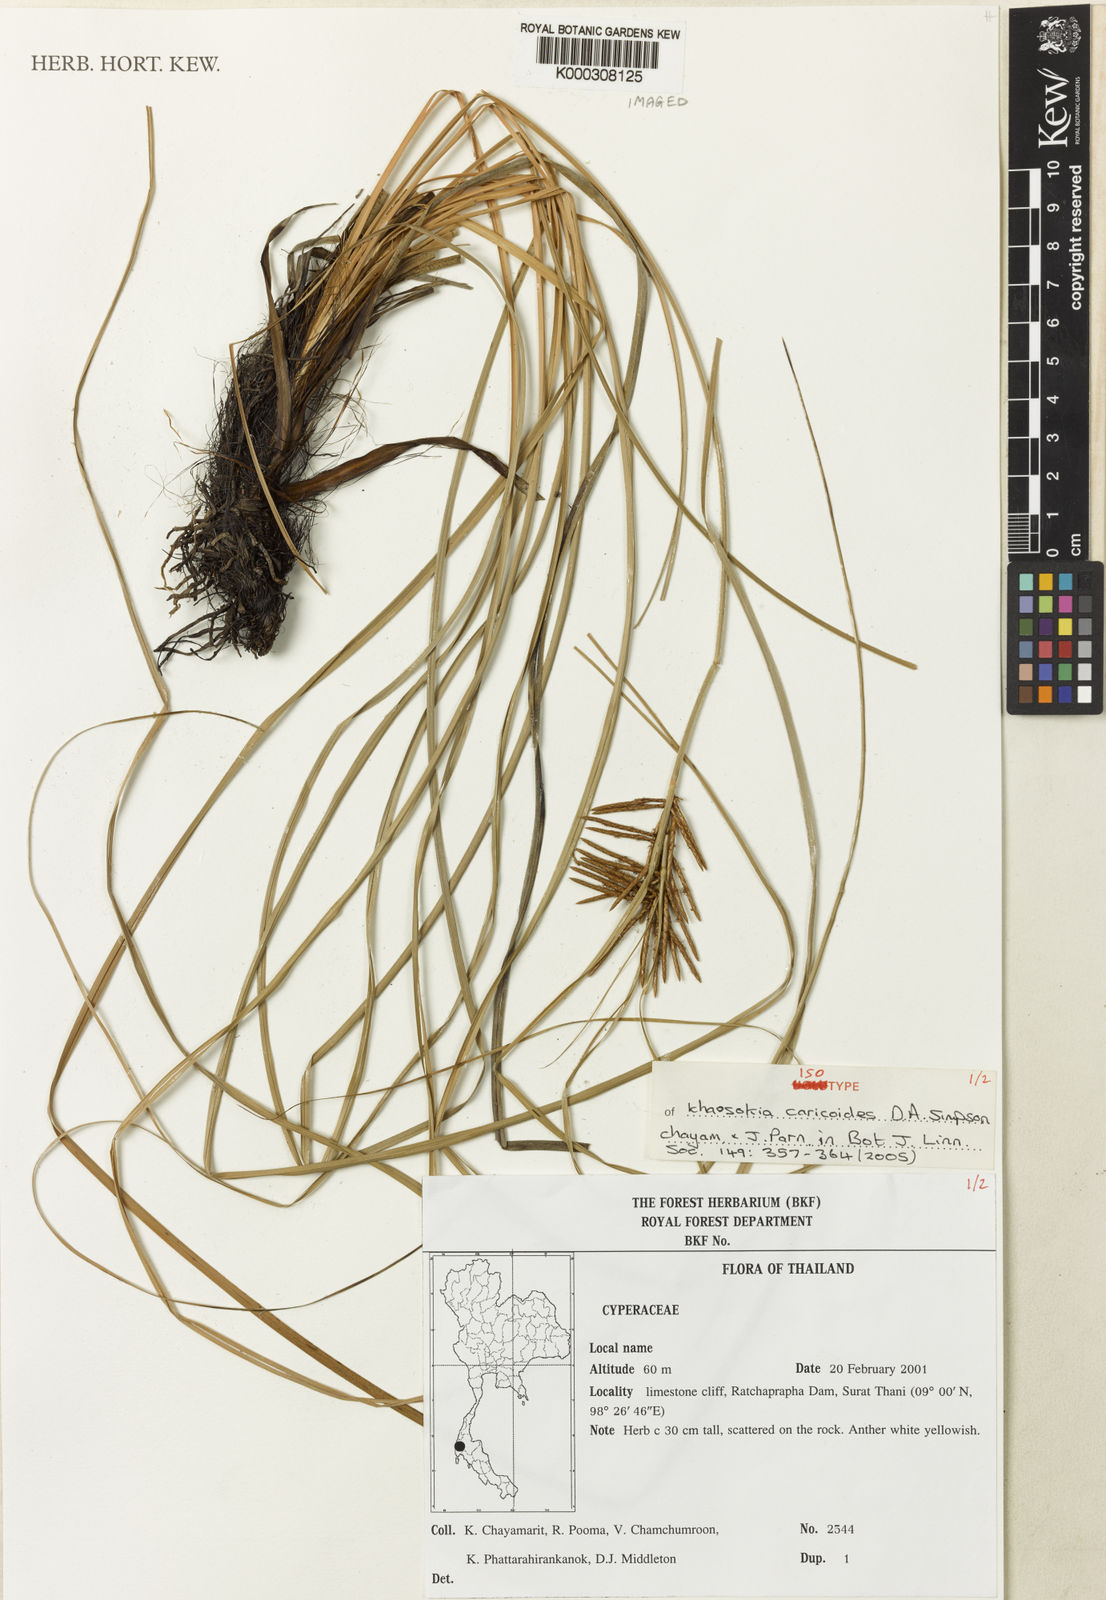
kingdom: Plantae
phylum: Tracheophyta
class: Liliopsida
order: Poales
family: Cyperaceae
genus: Khaosokia
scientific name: Khaosokia
